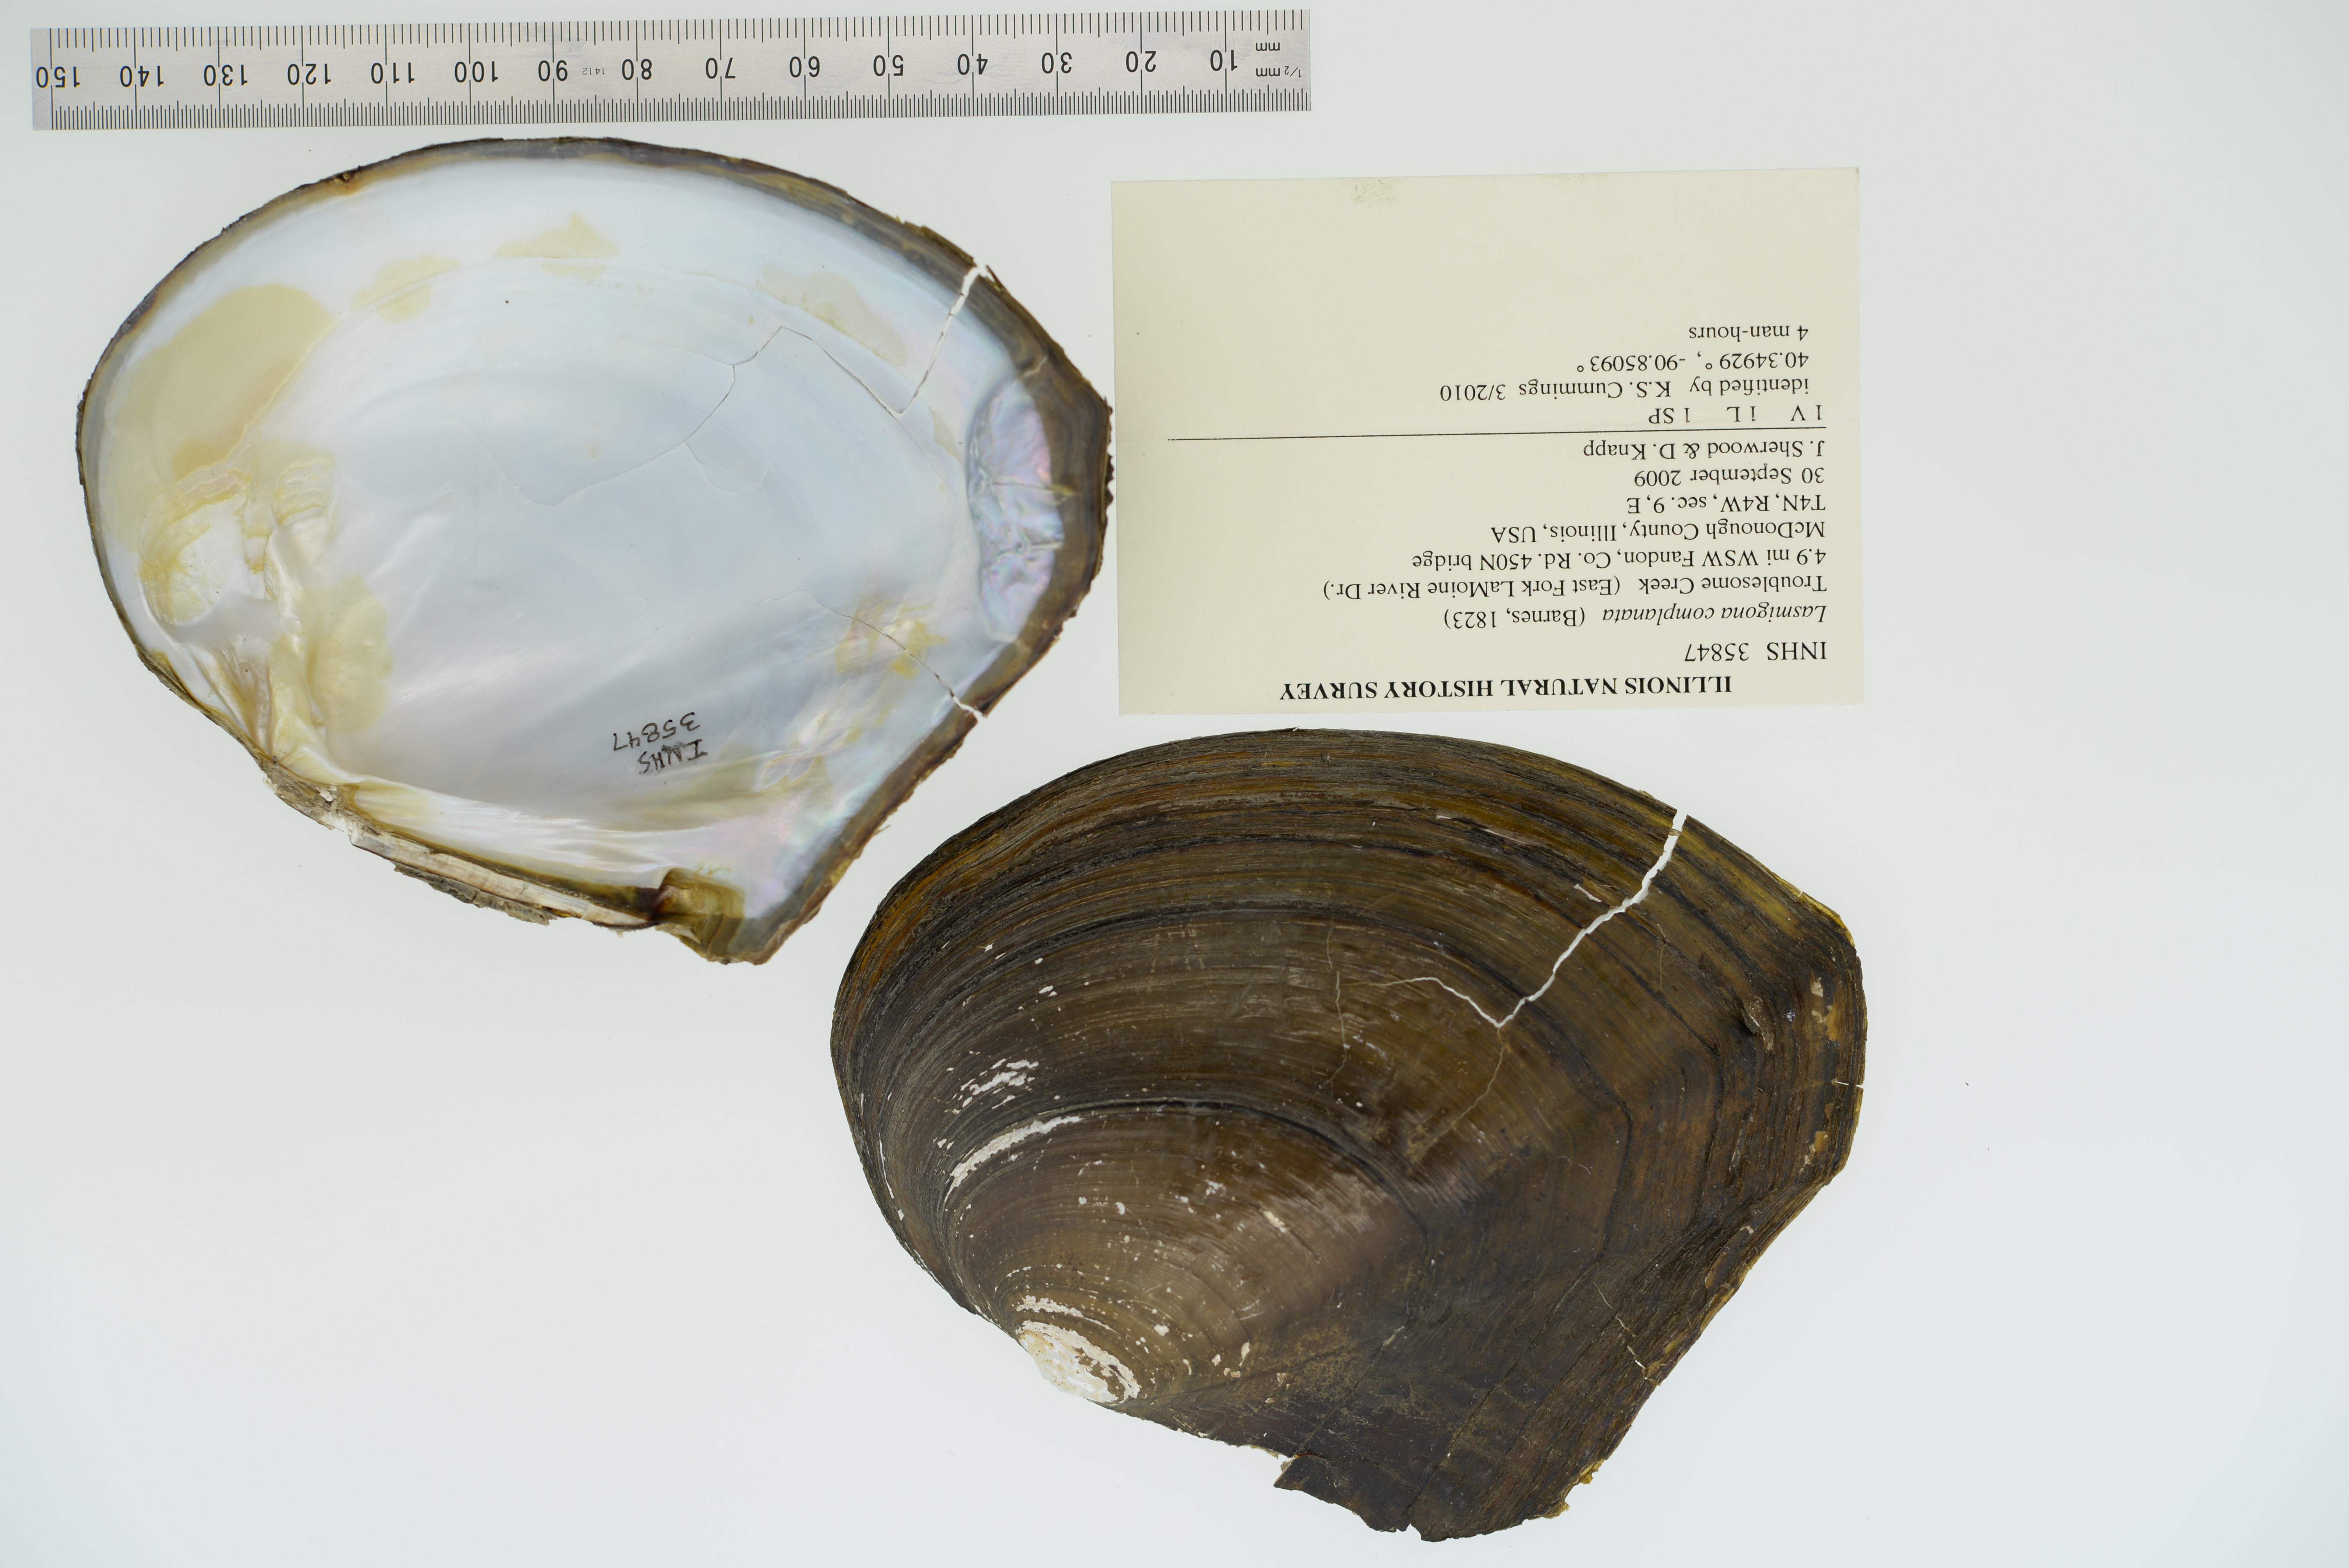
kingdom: Animalia
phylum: Mollusca
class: Bivalvia
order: Unionida
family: Unionidae
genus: Lasmigona
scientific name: Lasmigona complanata
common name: White heelsplitter
